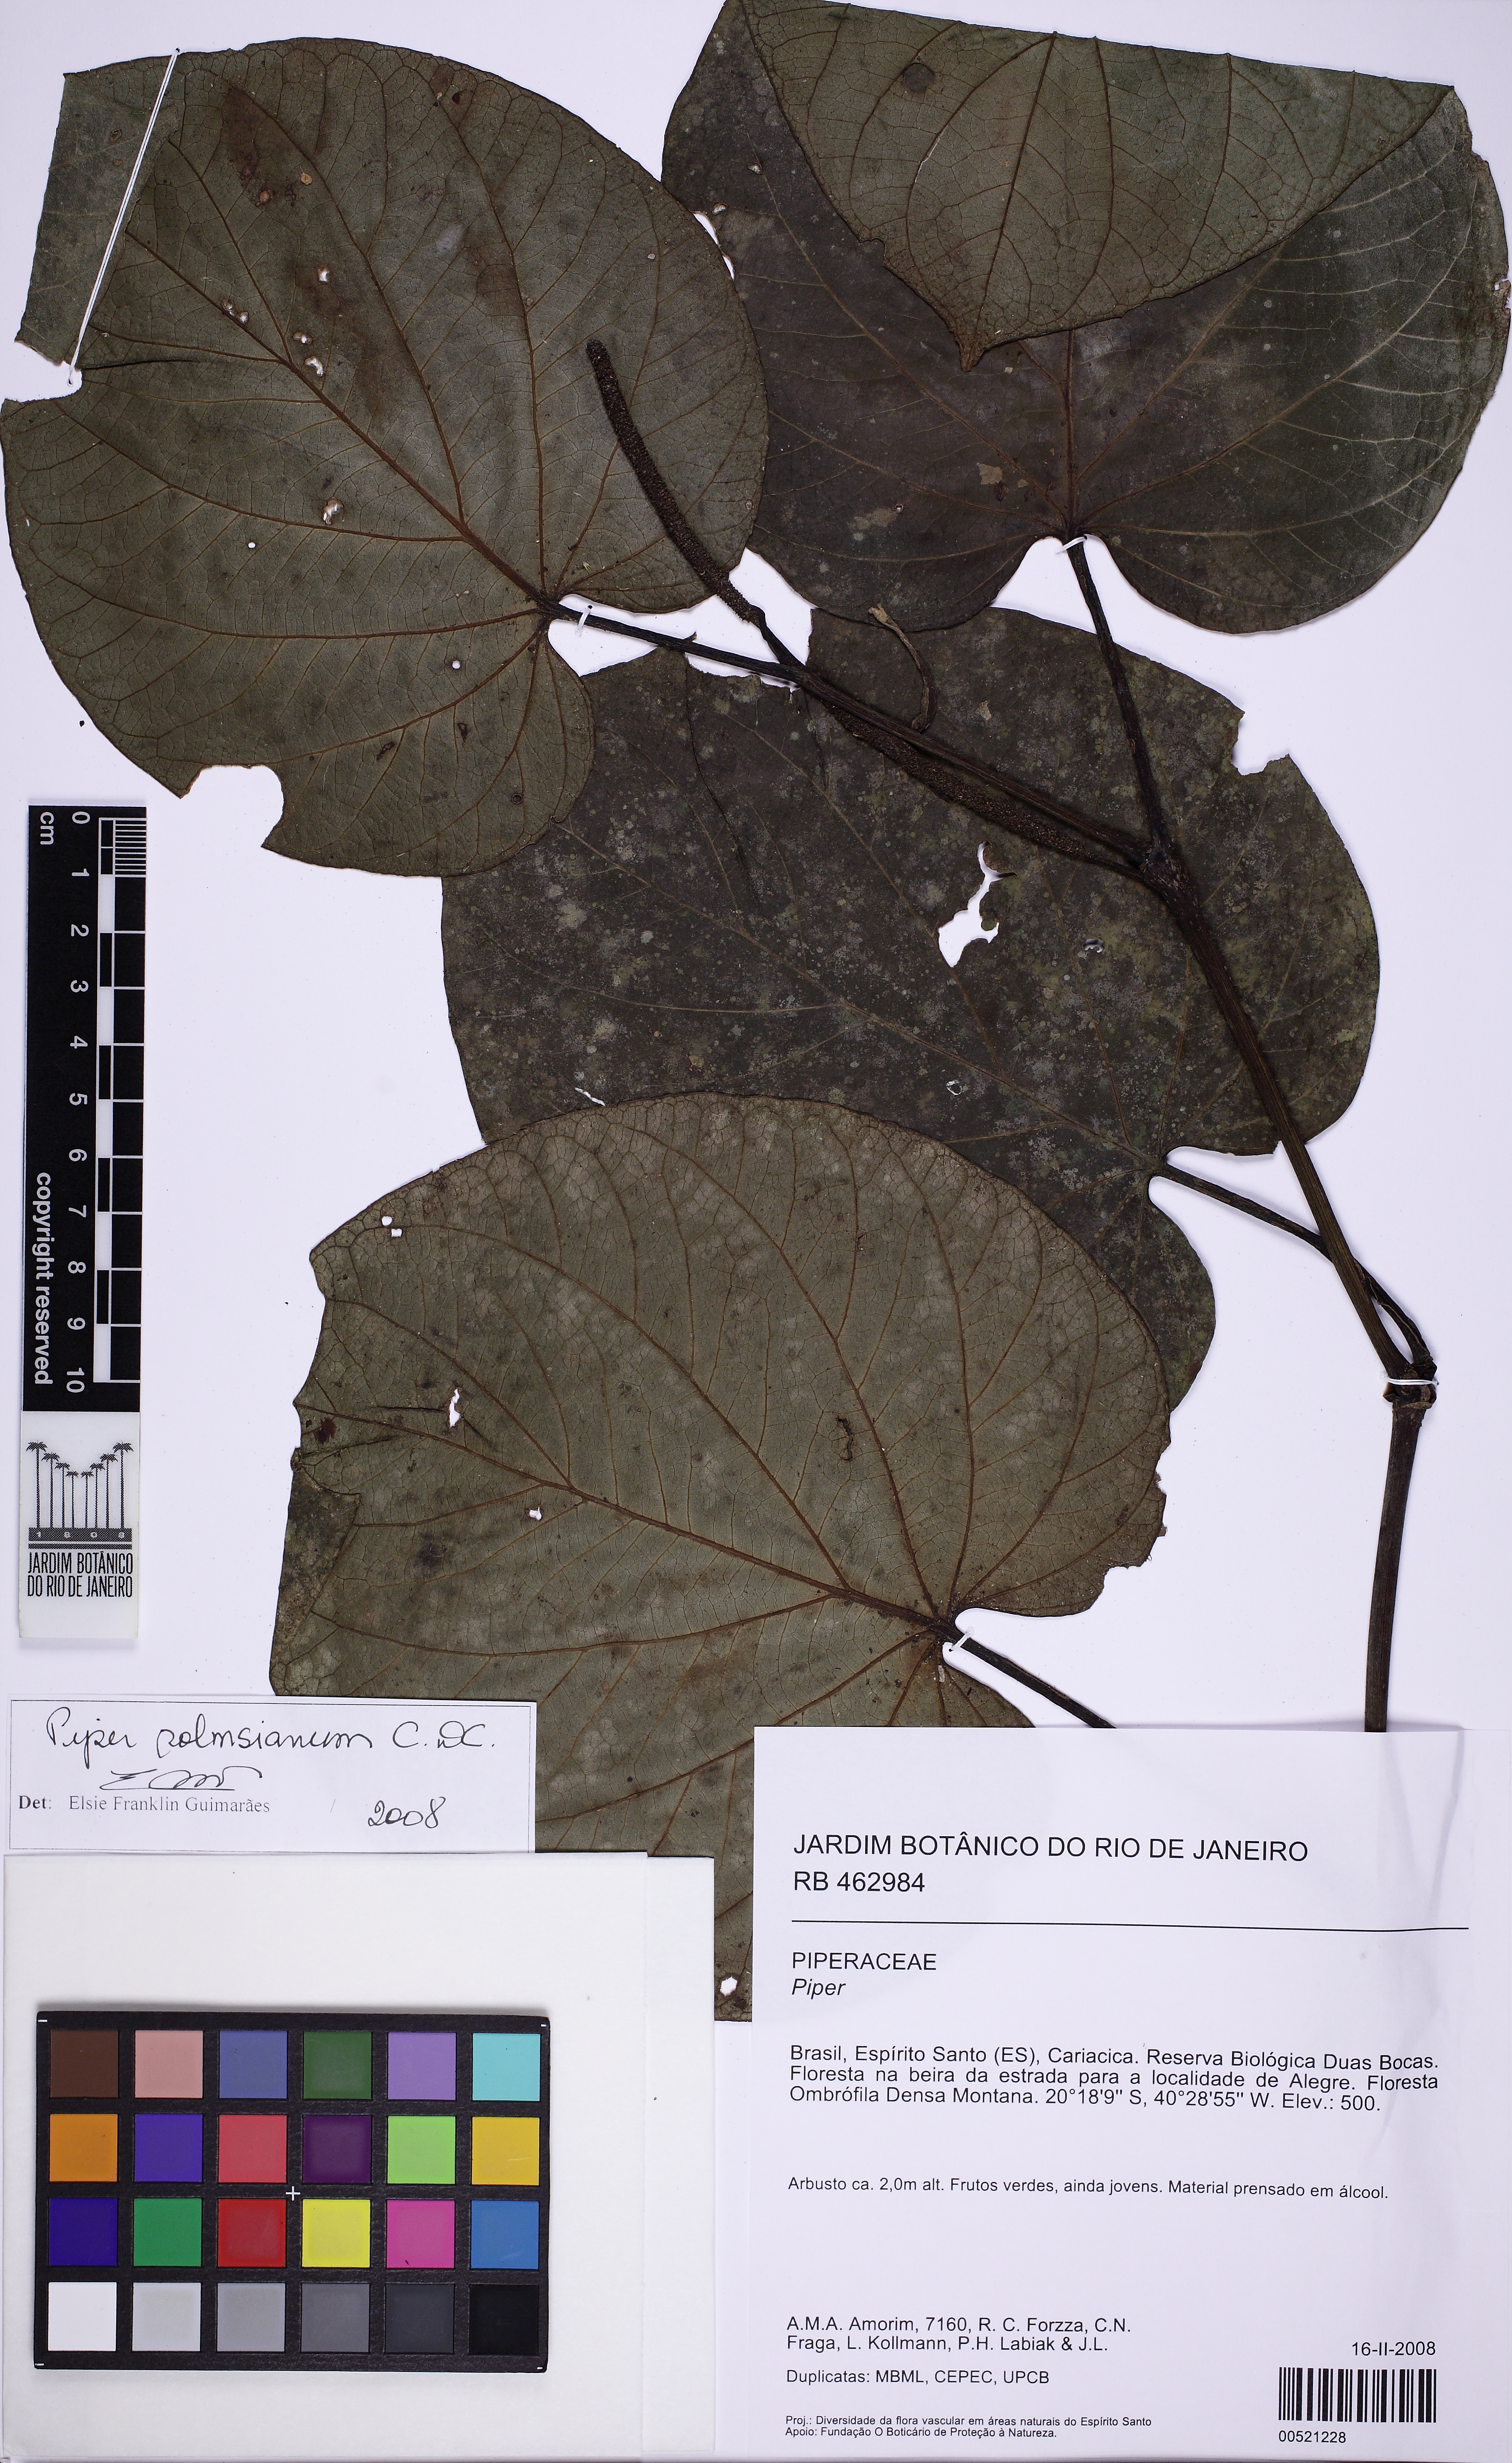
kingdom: Plantae
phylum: Tracheophyta
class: Magnoliopsida
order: Piperales
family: Piperaceae
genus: Piper
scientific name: Piper schenckii
